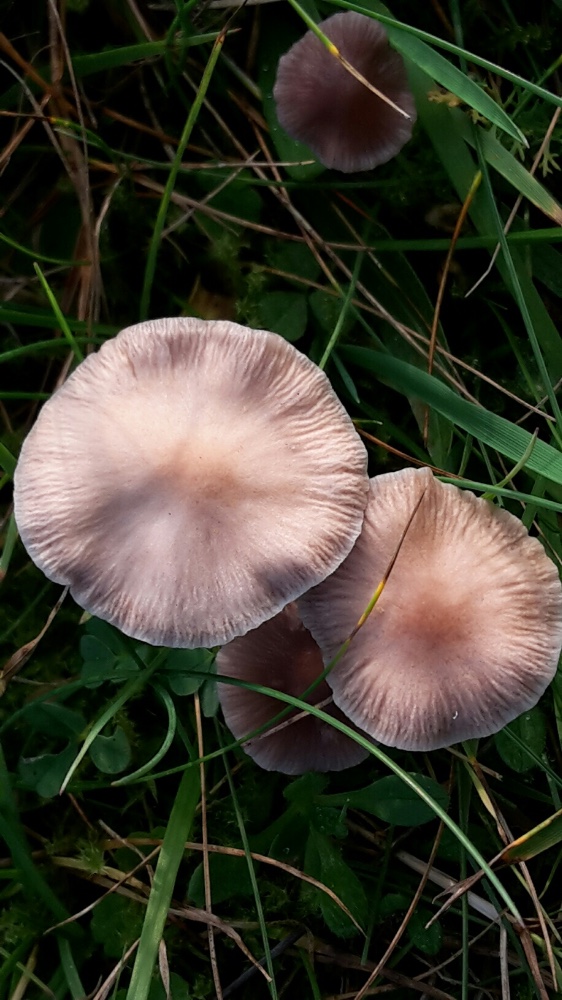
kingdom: Fungi
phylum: Basidiomycota
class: Agaricomycetes
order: Agaricales
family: Mycenaceae
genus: Mycena
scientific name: Mycena luteovariegata
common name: lillagul huesvamp
